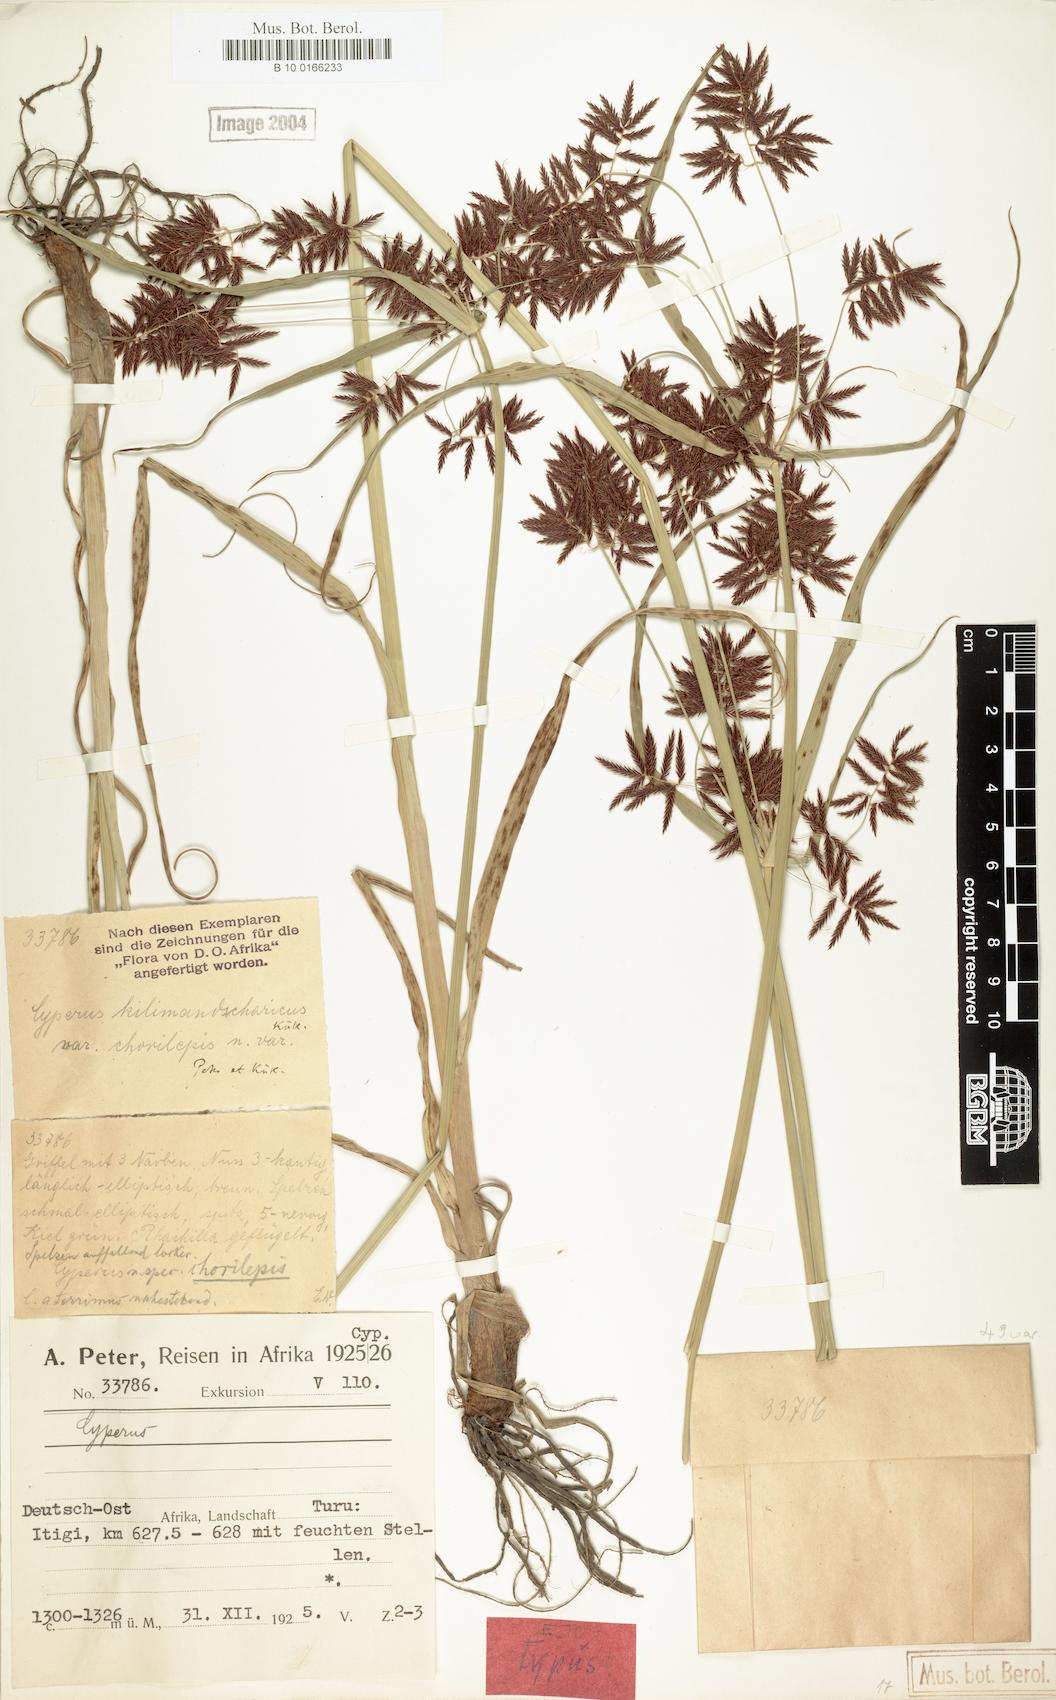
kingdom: Plantae
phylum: Tracheophyta
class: Liliopsida
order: Poales
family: Cyperaceae
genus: Cyperus
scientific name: Cyperus kilimandscharicus
